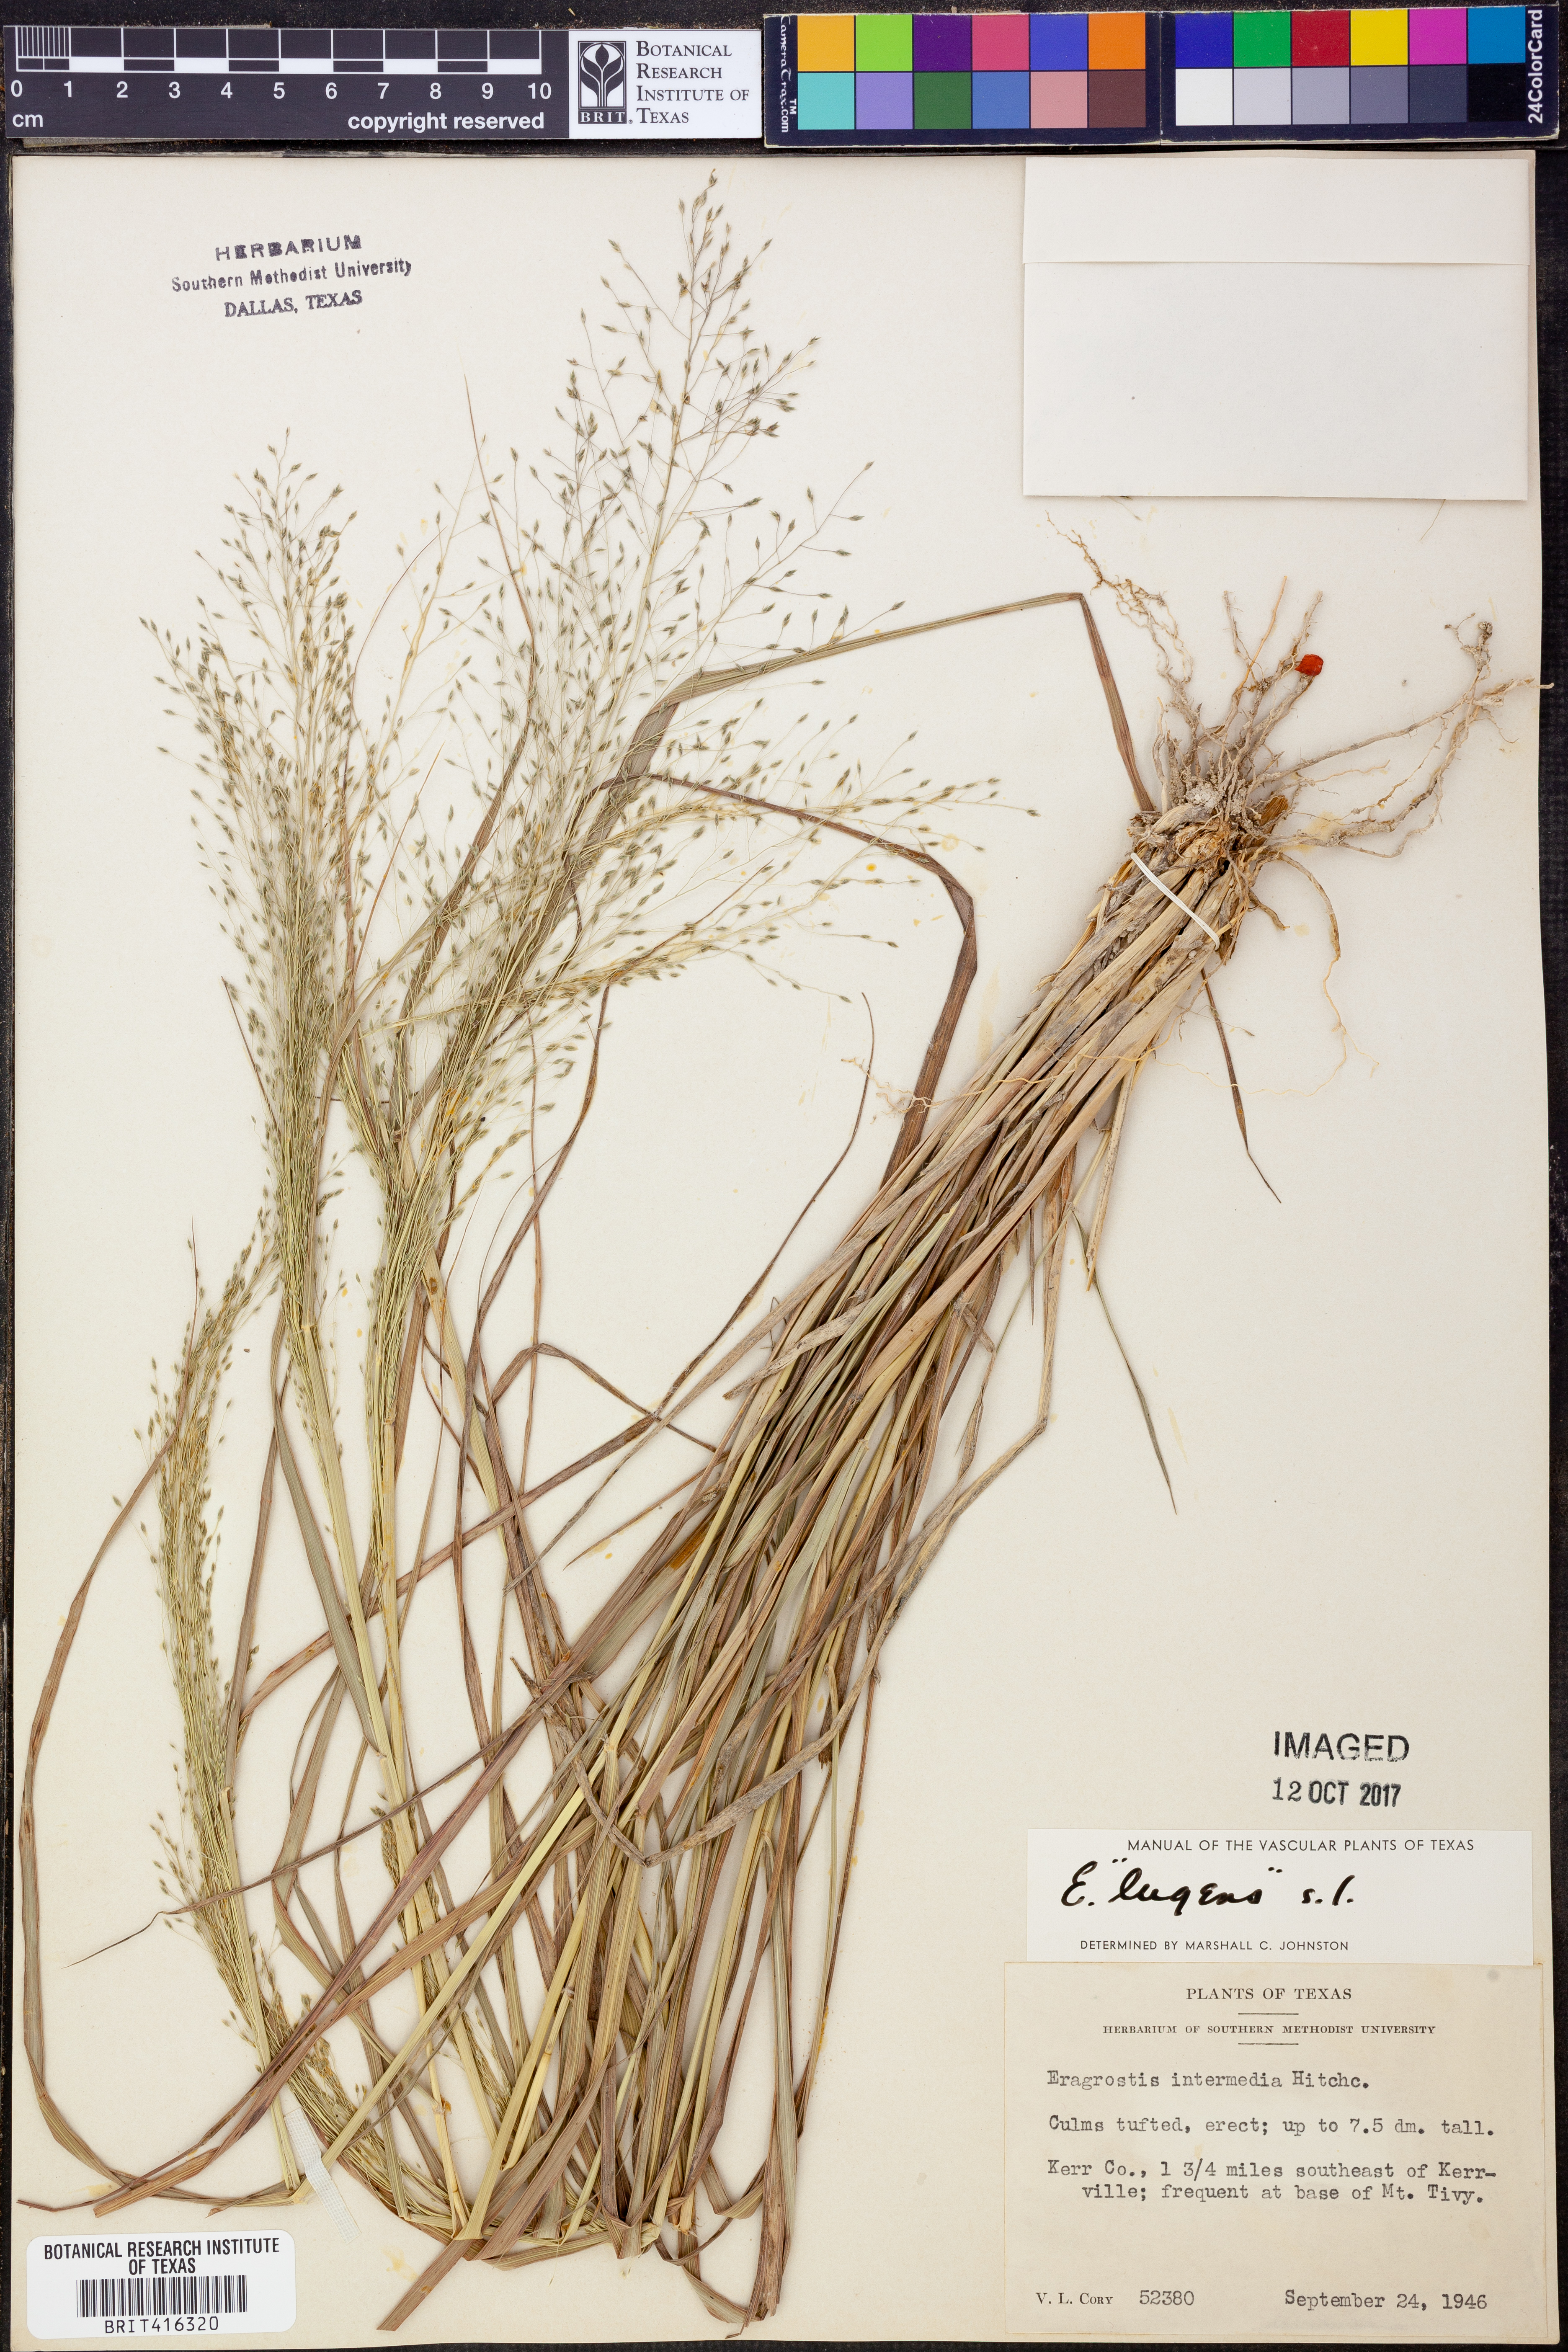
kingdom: Plantae
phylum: Tracheophyta
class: Liliopsida
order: Poales
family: Poaceae
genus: Eragrostis
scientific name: Eragrostis capillaris
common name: Hair-like lovegrass
